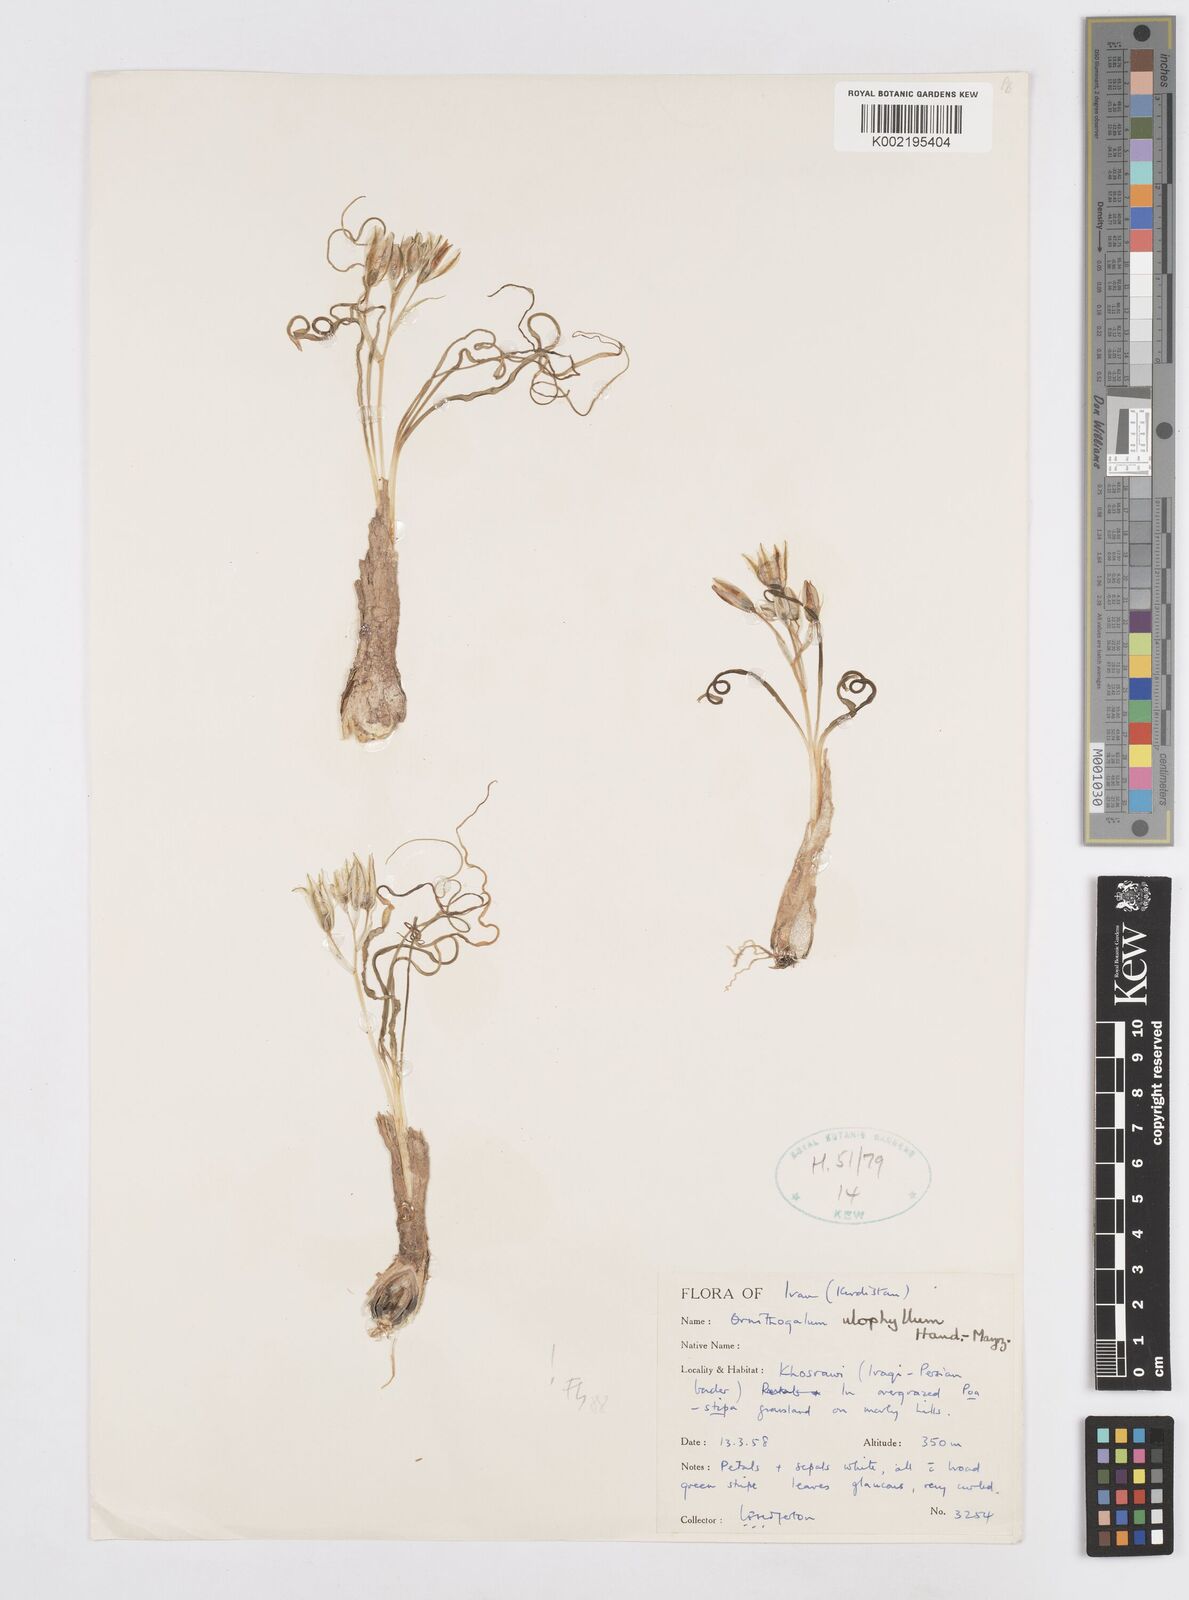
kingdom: Plantae
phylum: Tracheophyta
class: Liliopsida
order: Asparagales
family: Asparagaceae
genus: Ornithogalum
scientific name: Ornithogalum neurostegium
